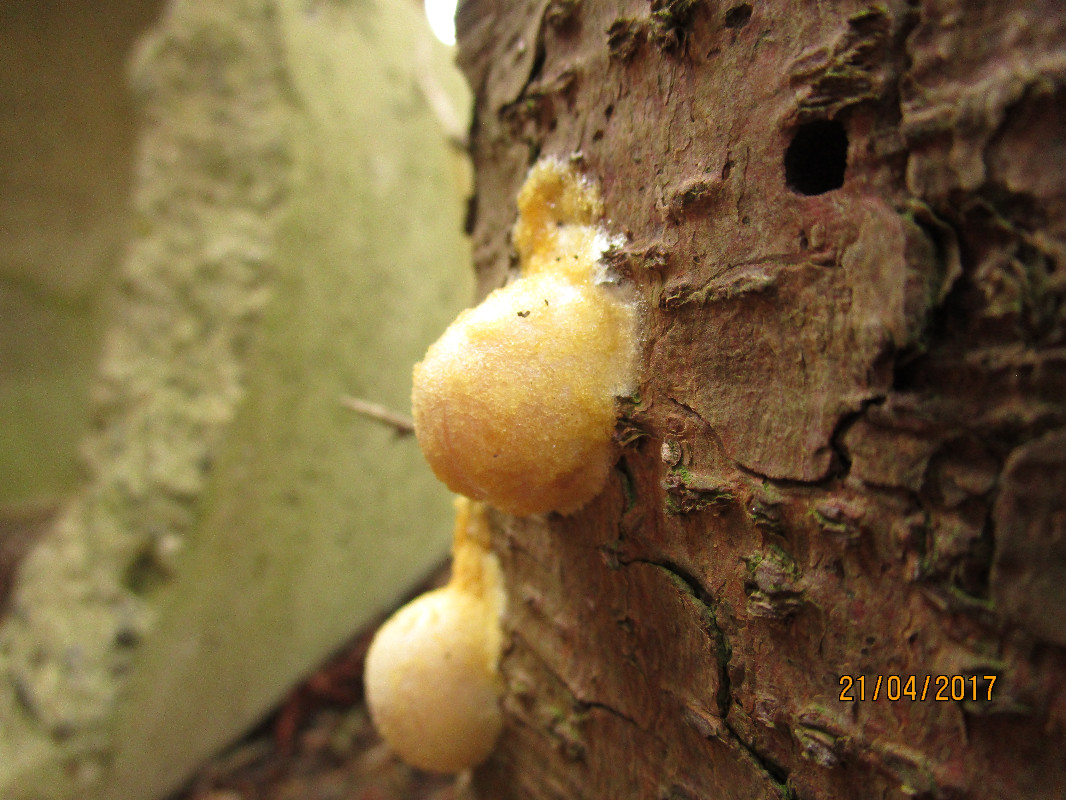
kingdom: Protozoa
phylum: Mycetozoa
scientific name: Mycetozoa
